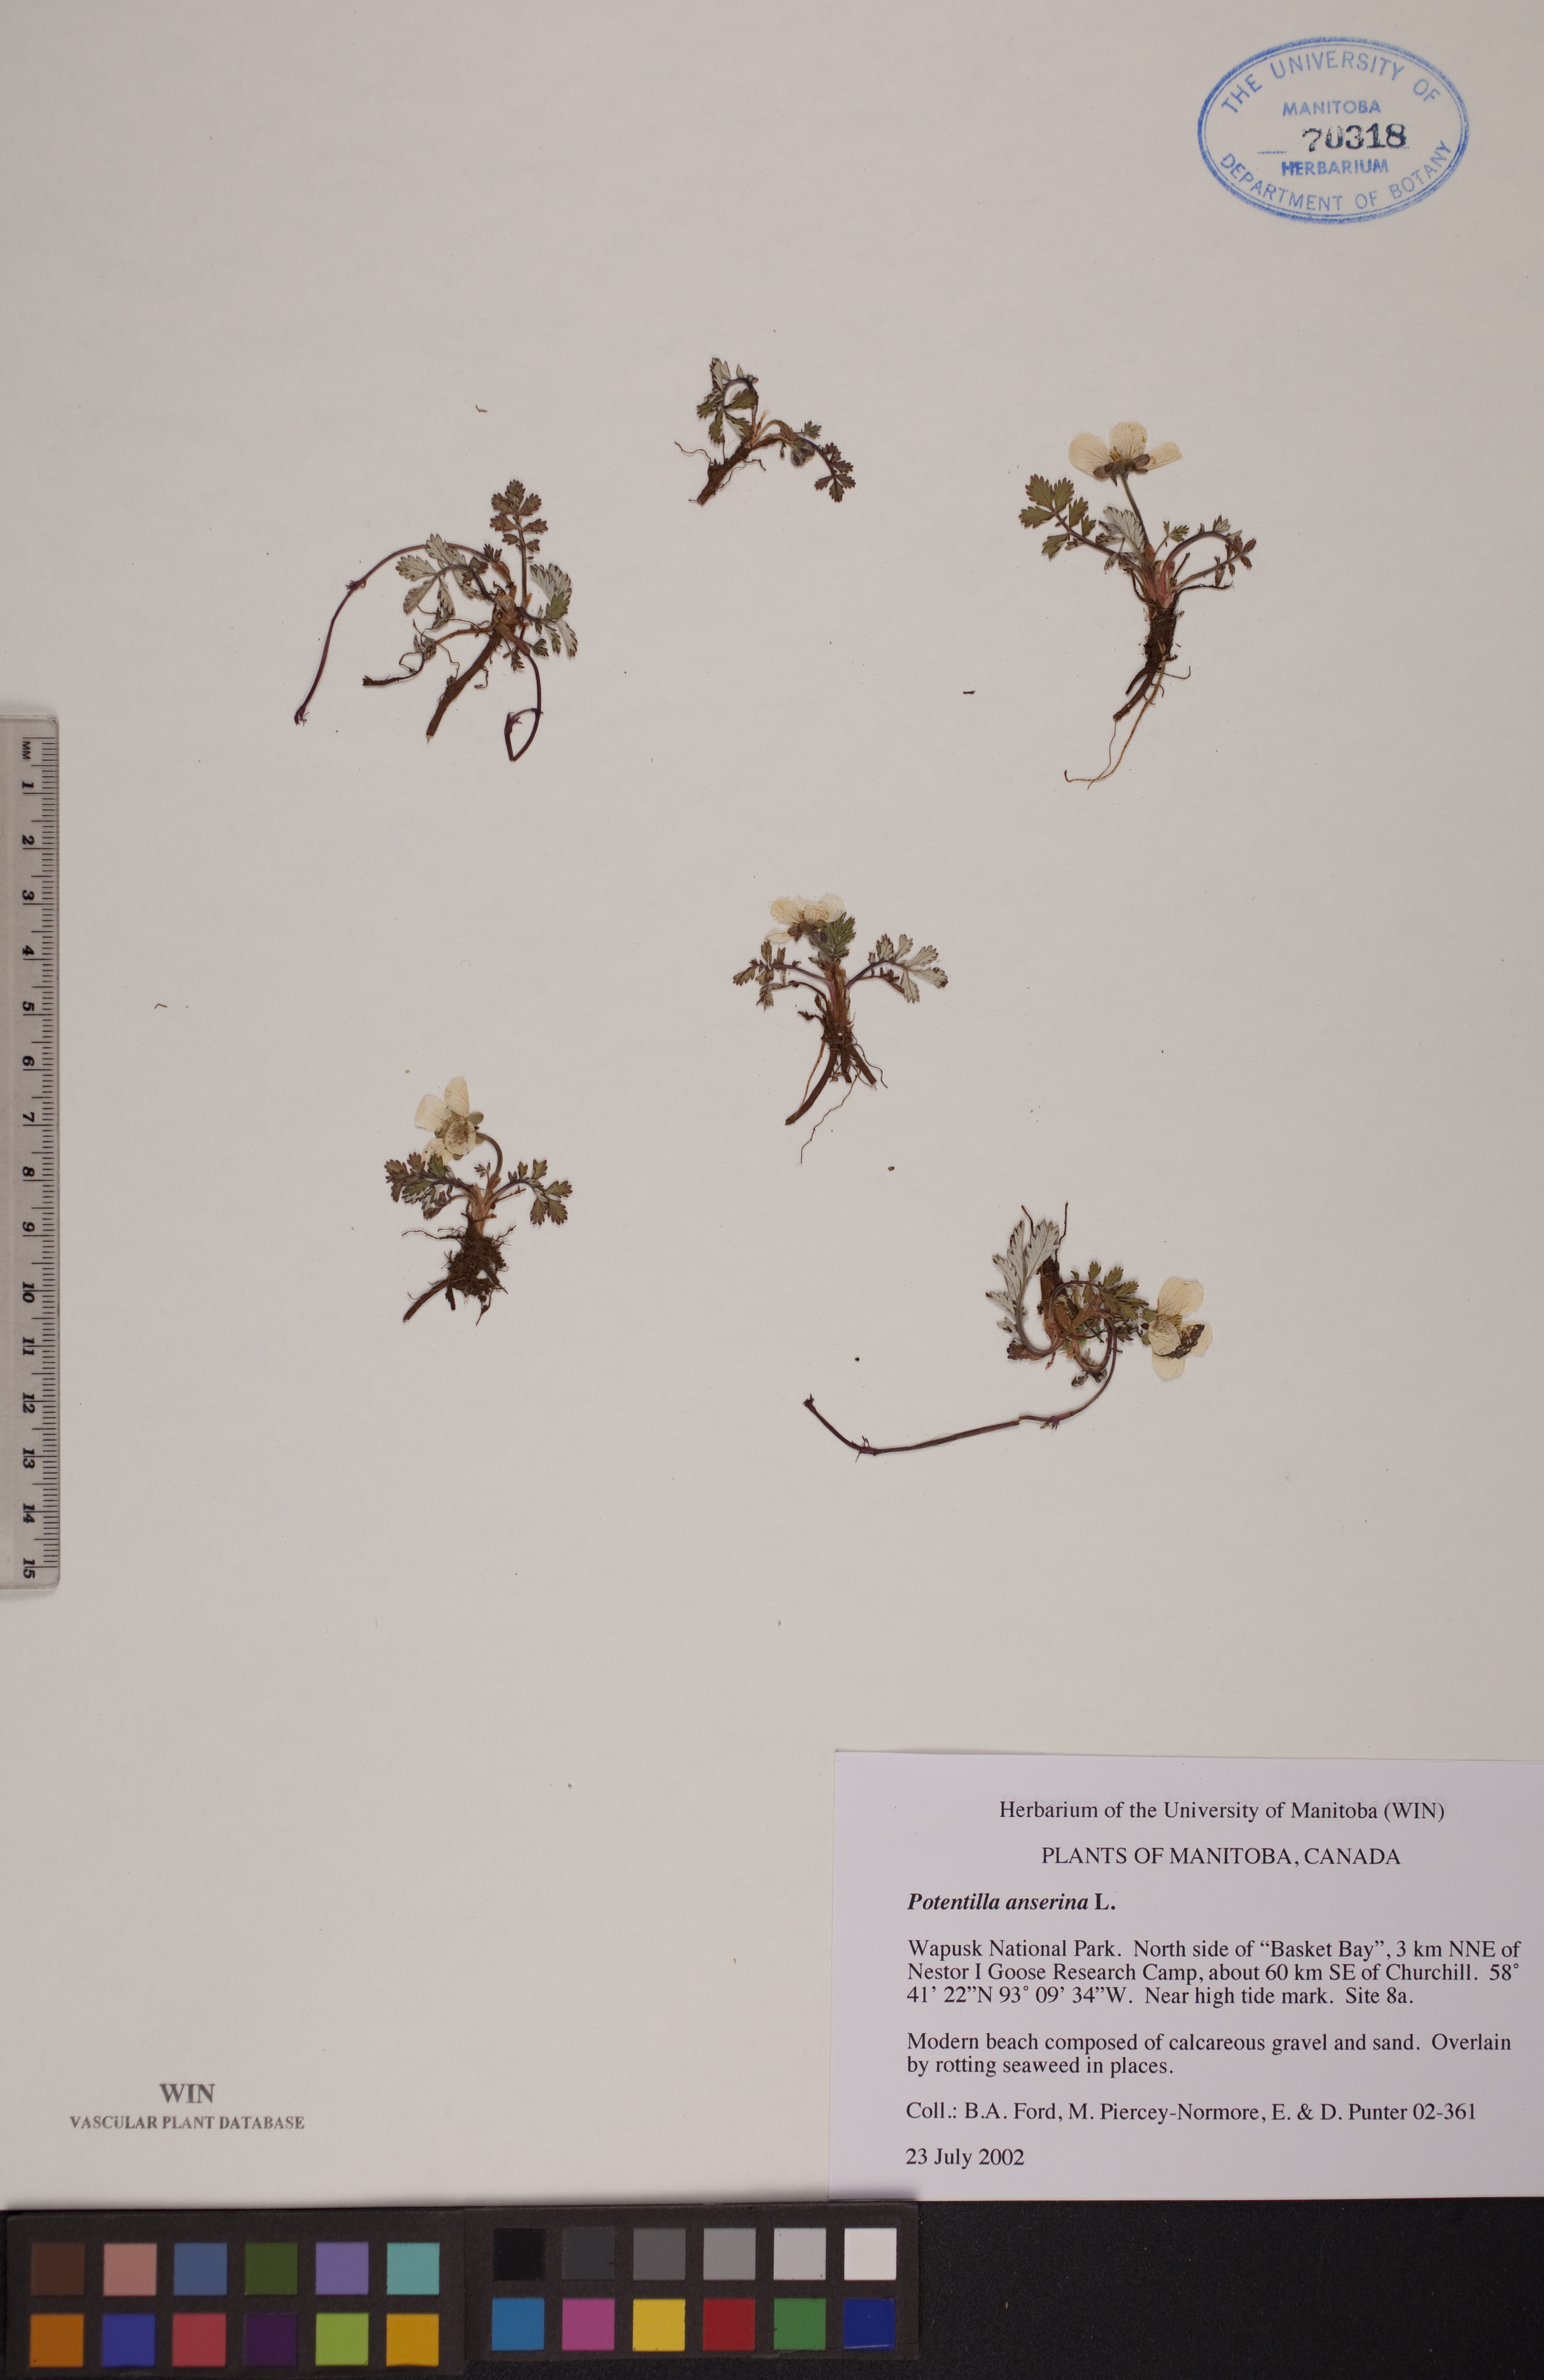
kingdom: Plantae
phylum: Tracheophyta
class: Magnoliopsida
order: Rosales
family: Rosaceae
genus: Argentina
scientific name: Argentina anserina
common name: Common silverweed
